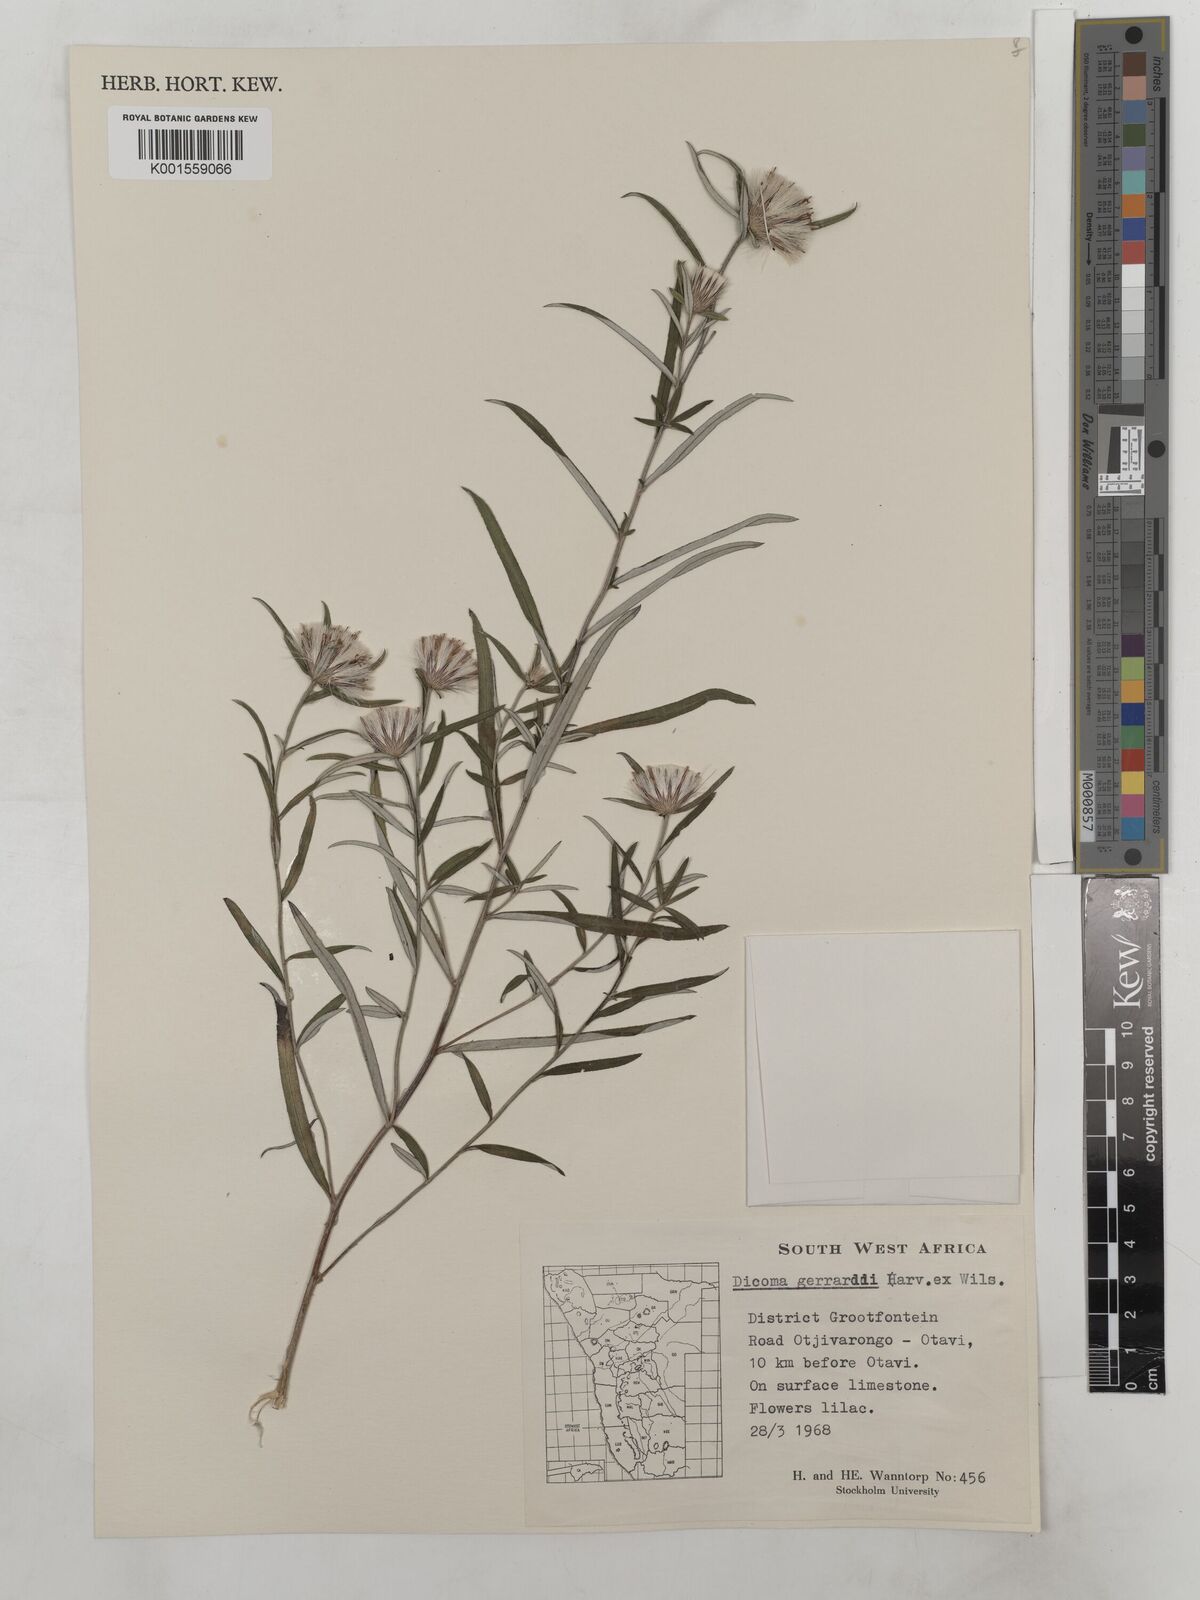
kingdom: Plantae
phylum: Tracheophyta
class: Magnoliopsida
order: Asterales
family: Asteraceae
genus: Dicoma
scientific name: Dicoma anomala
